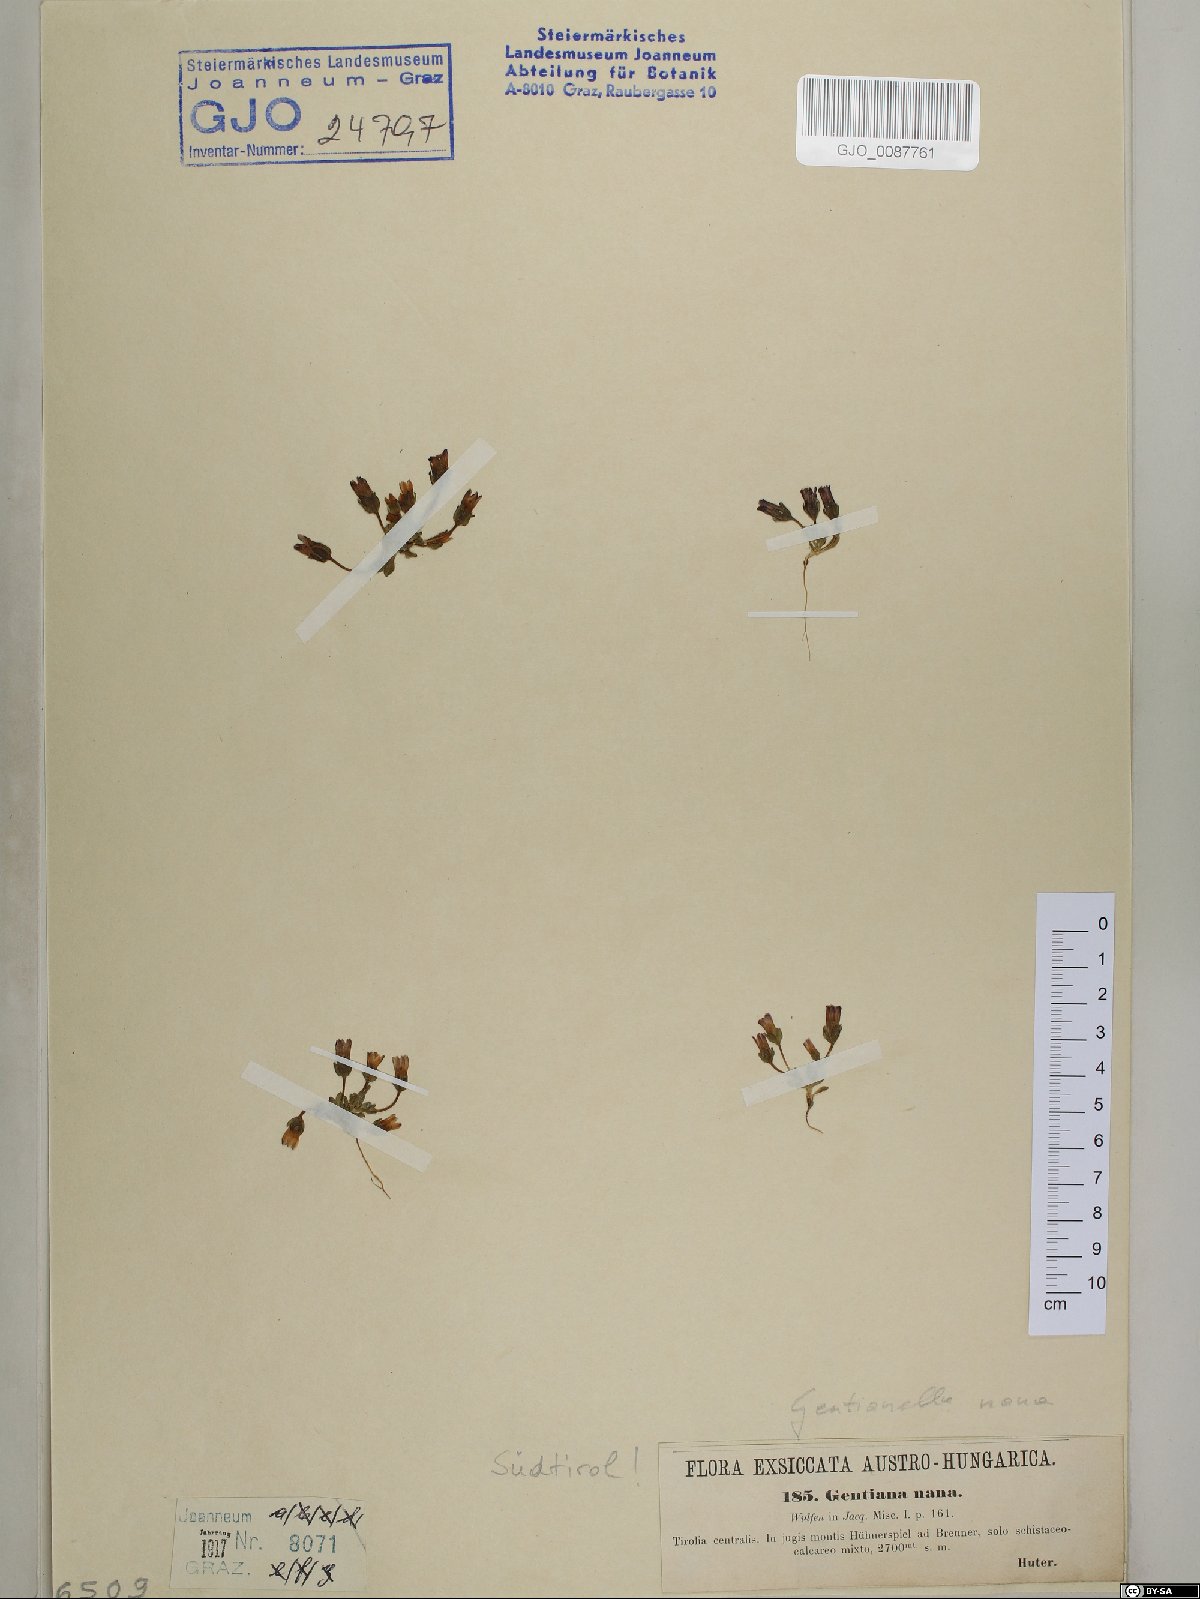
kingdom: Plantae
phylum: Tracheophyta
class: Magnoliopsida
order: Gentianales
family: Gentianaceae
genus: Comastoma
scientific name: Comastoma nanum
